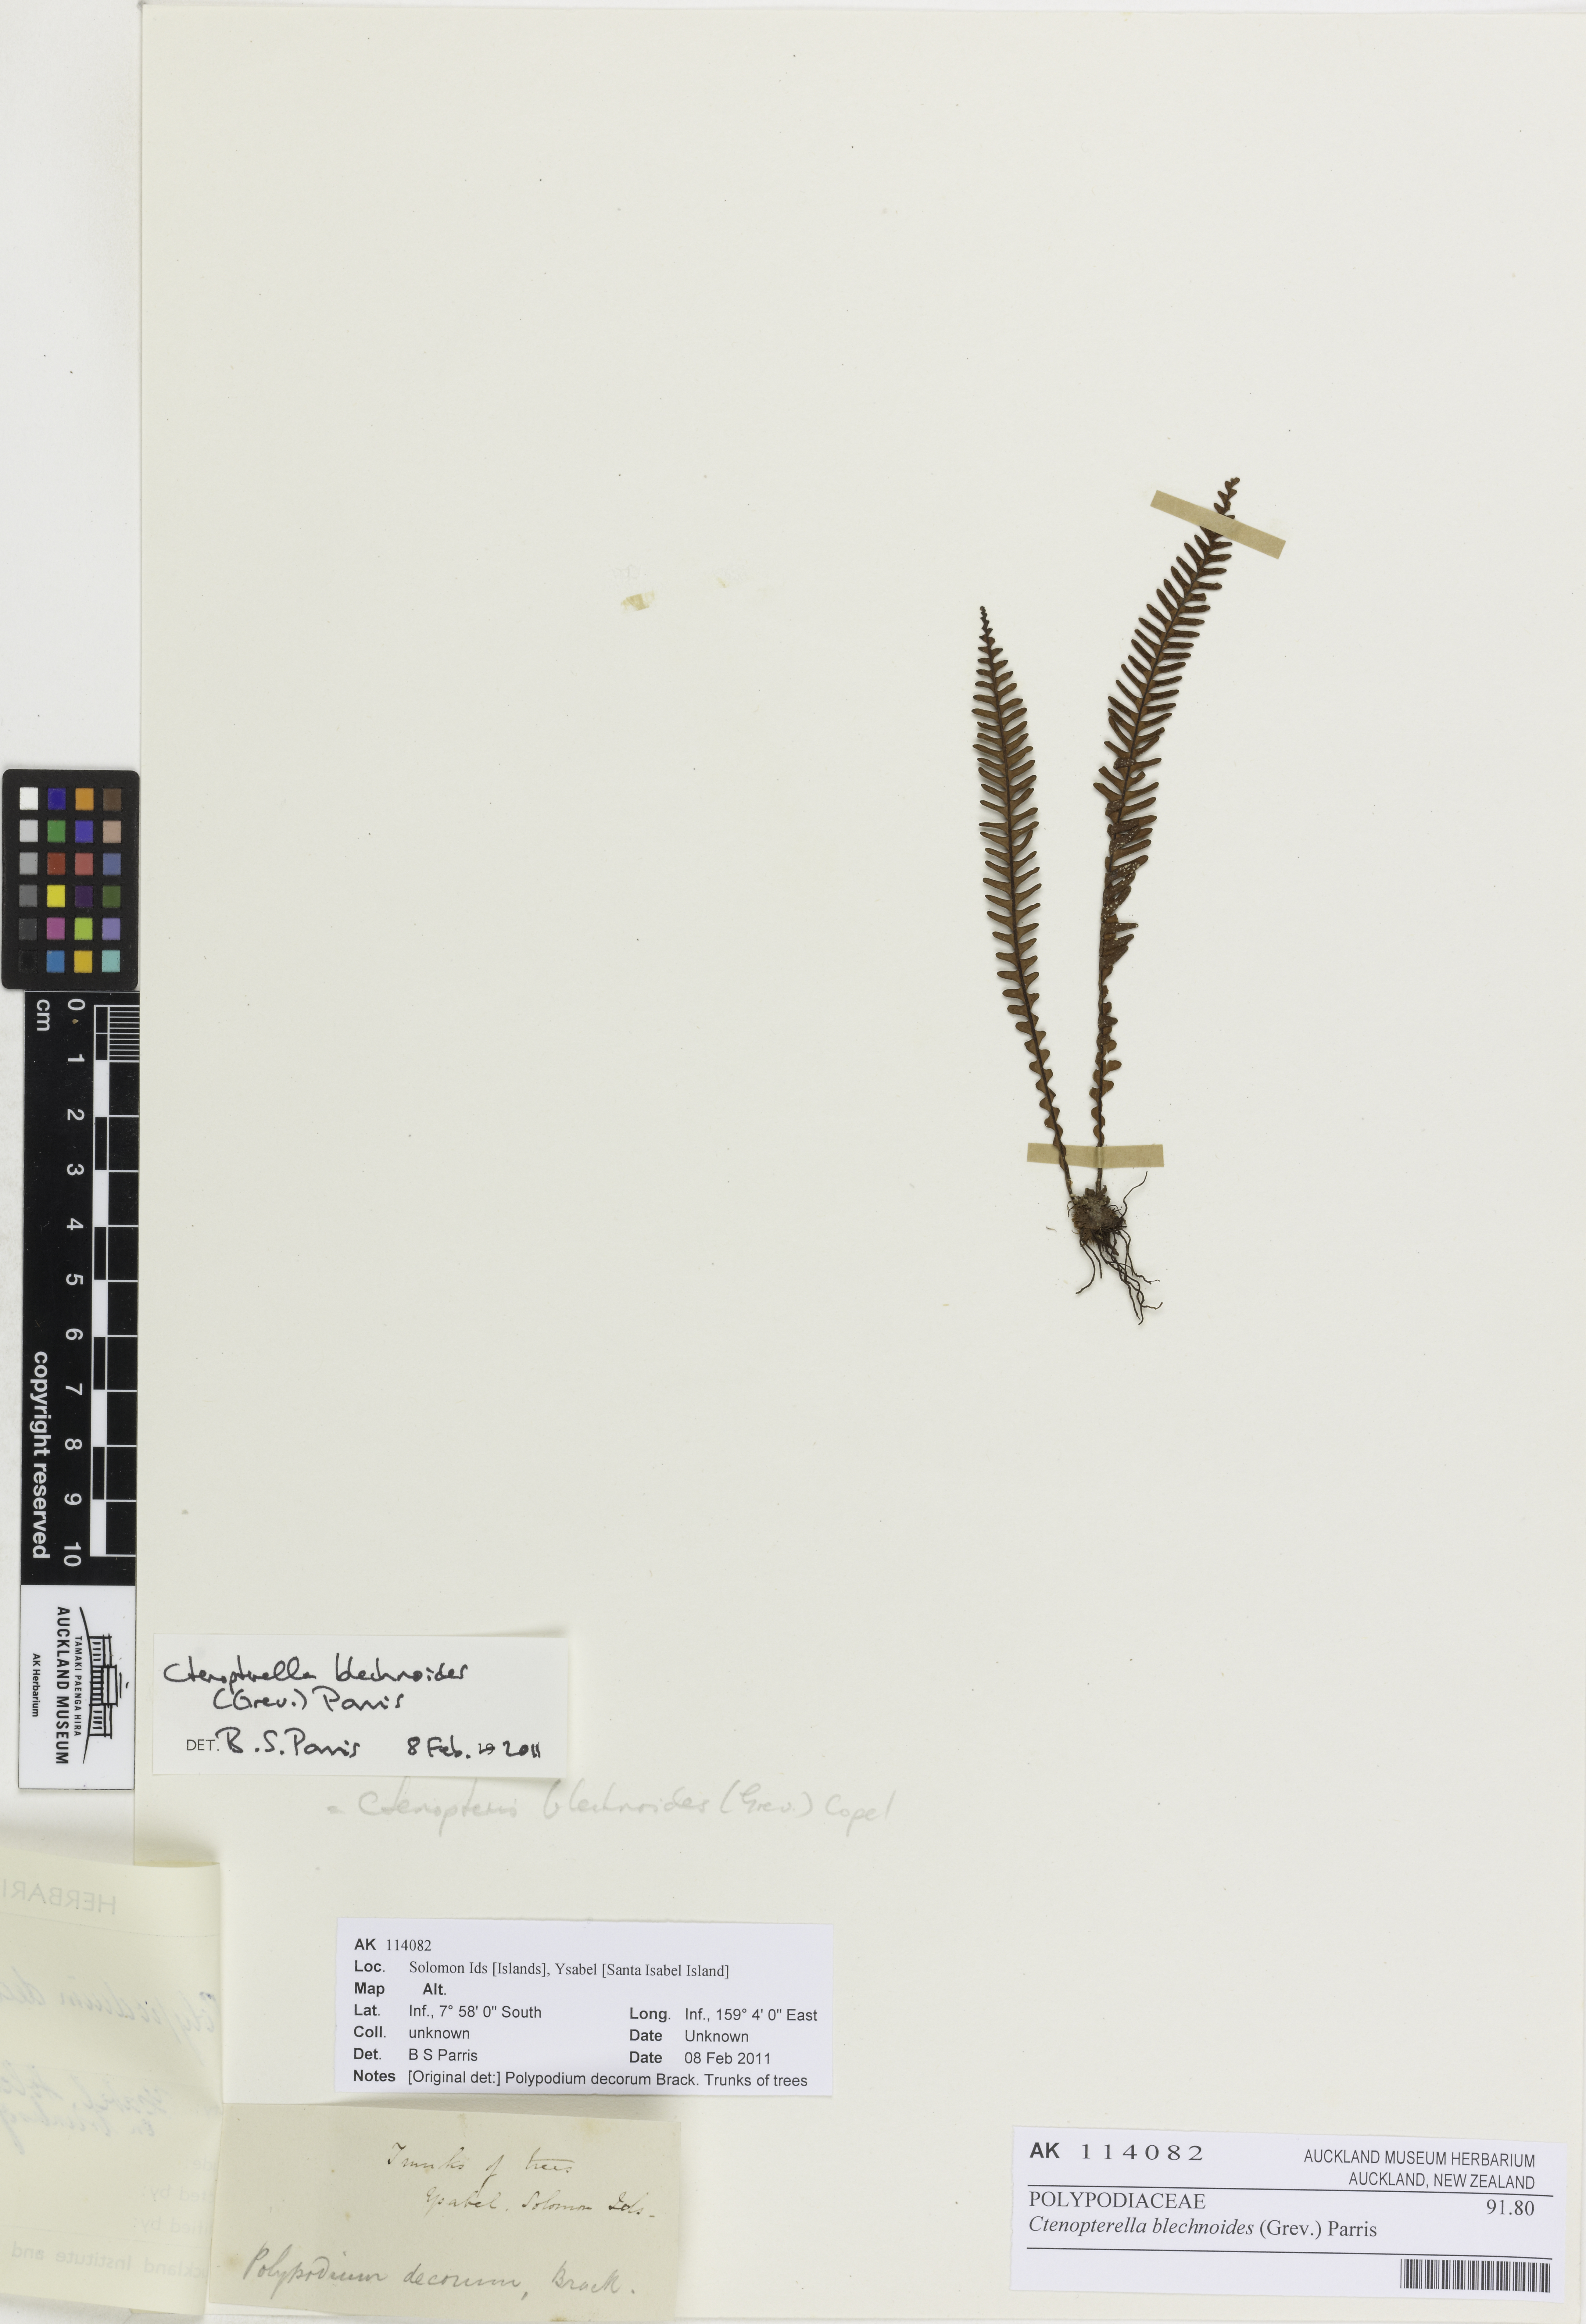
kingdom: Plantae
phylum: Tracheophyta
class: Polypodiopsida
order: Polypodiales
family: Polypodiaceae
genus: Ctenopterella
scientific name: Ctenopterella blechnoides
